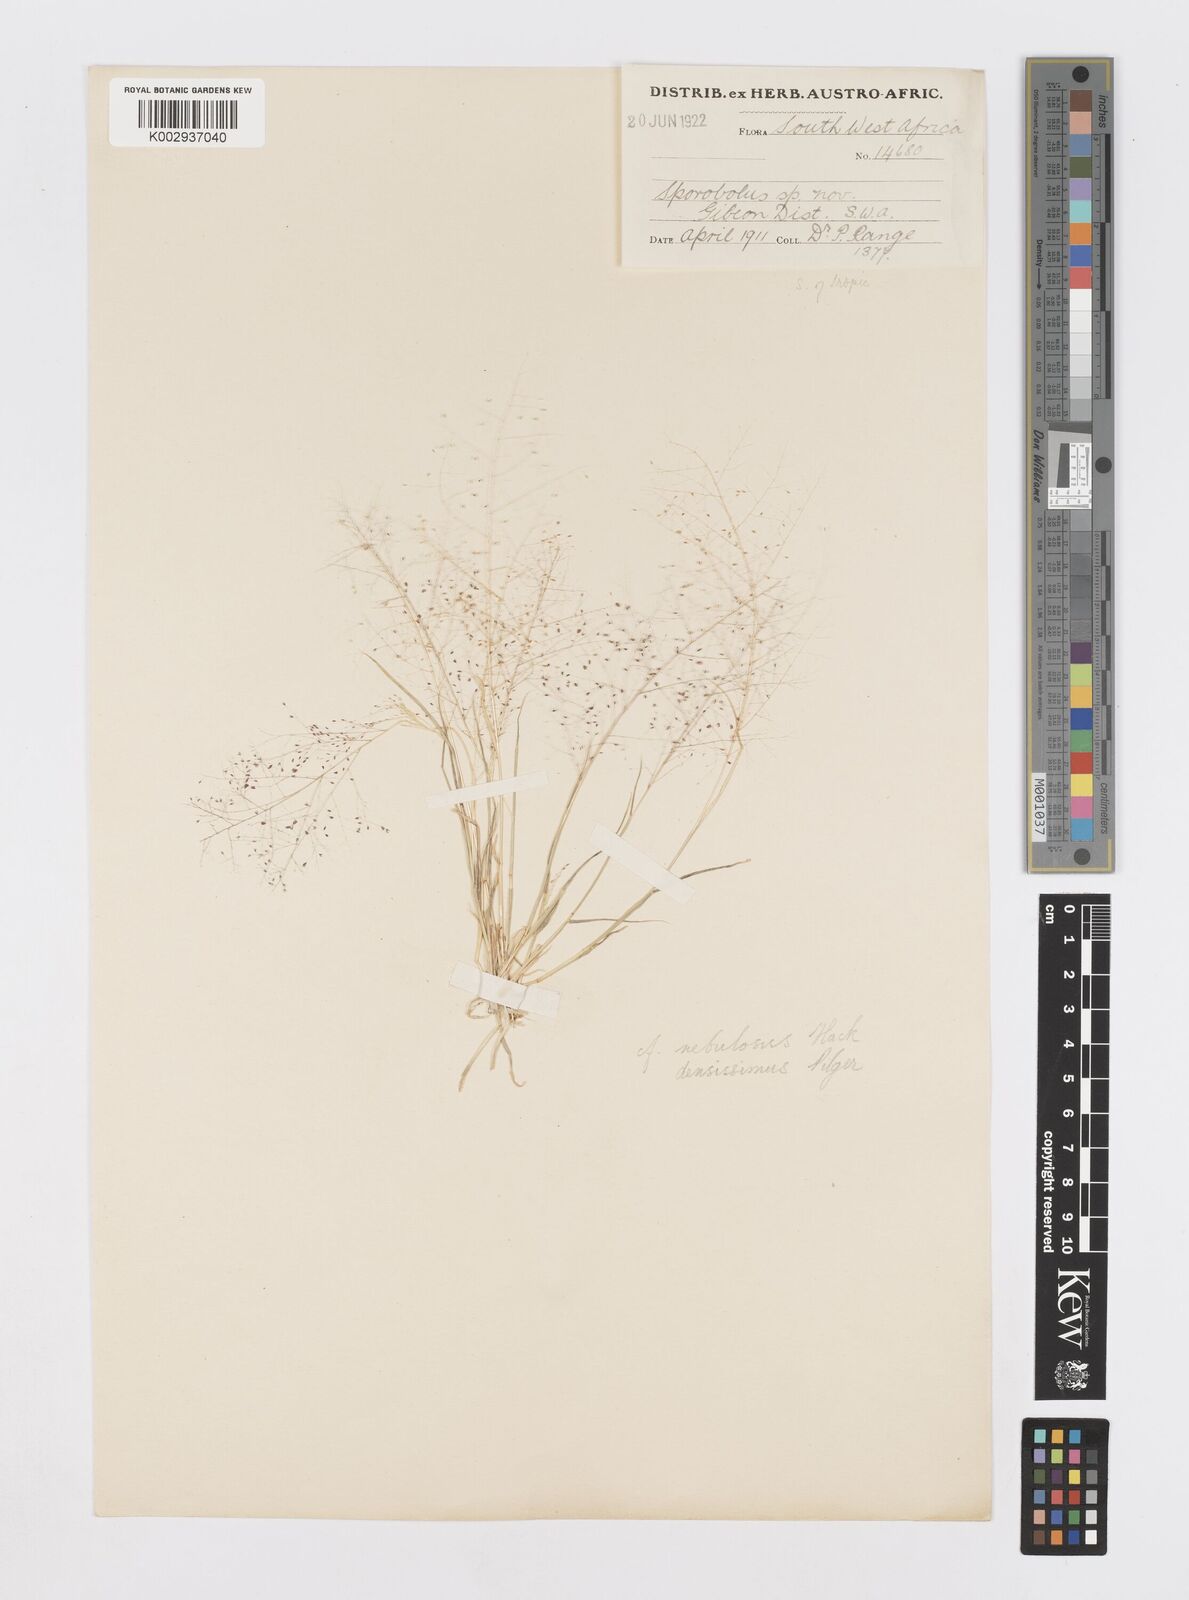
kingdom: Plantae
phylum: Tracheophyta
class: Liliopsida
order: Poales
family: Poaceae
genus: Sporobolus
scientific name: Sporobolus
